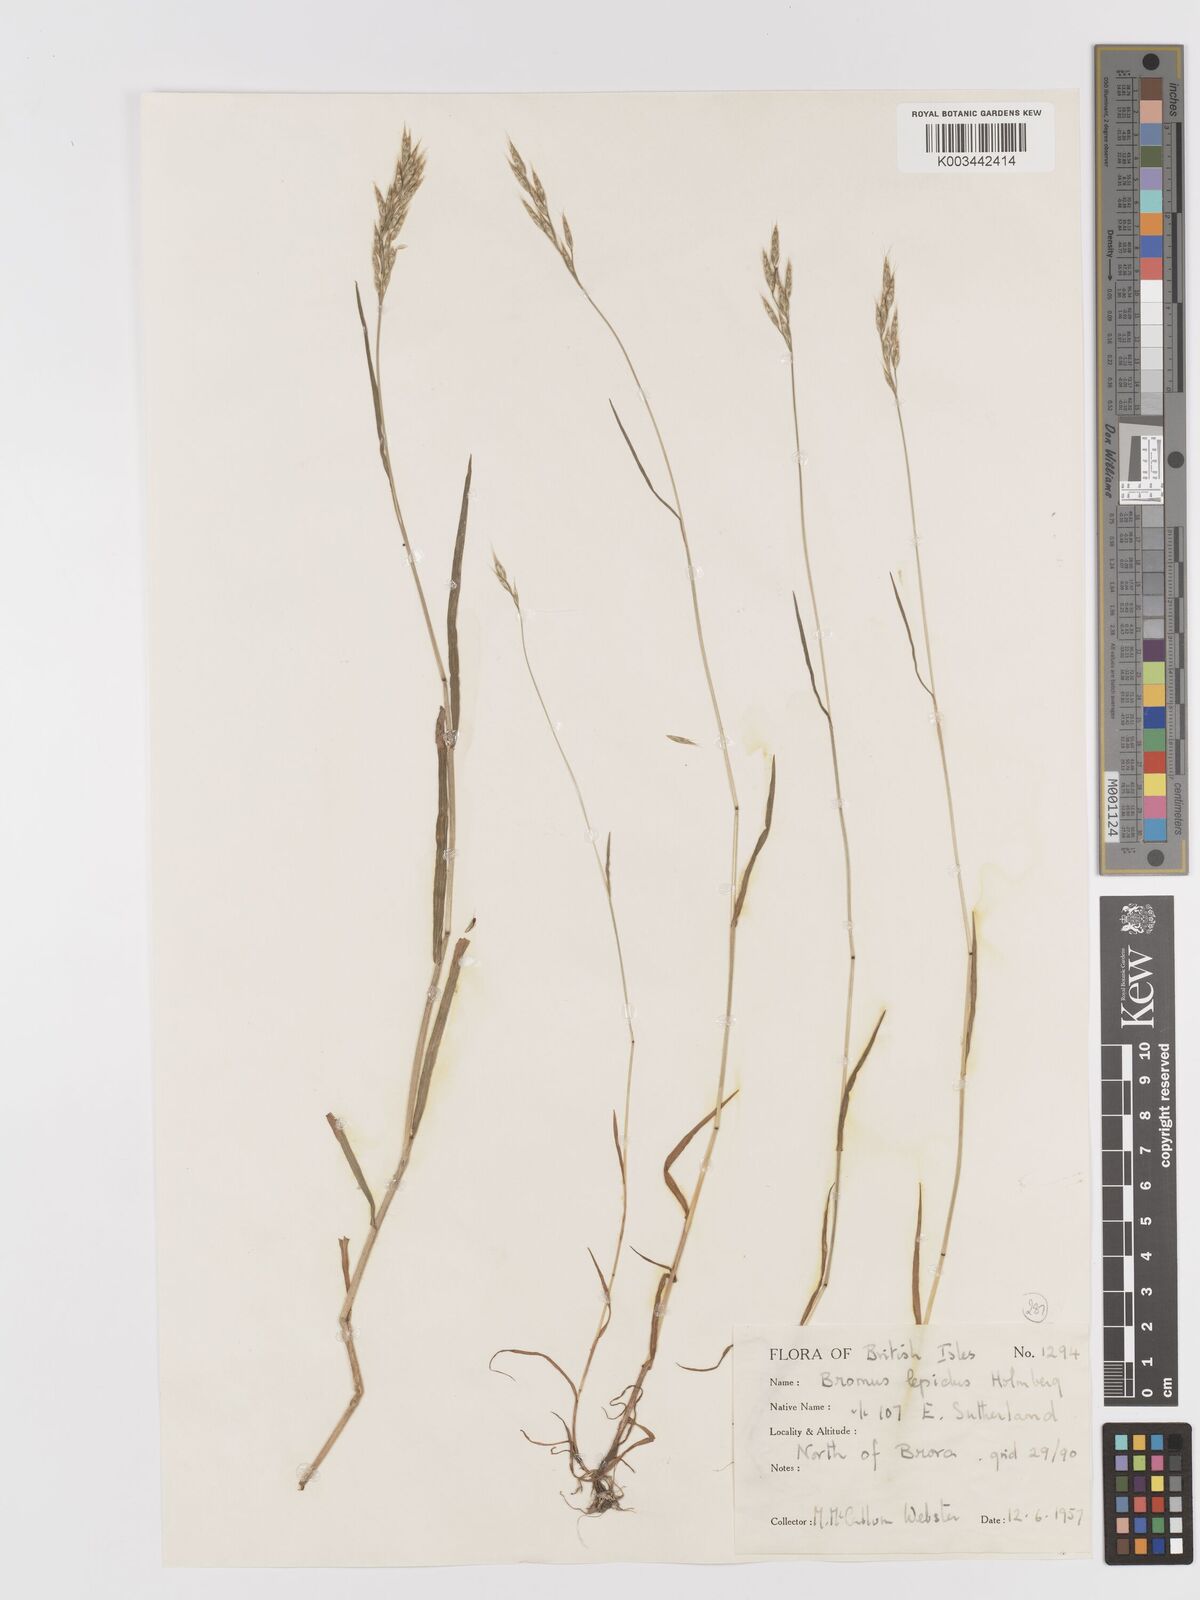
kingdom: Plantae
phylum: Tracheophyta
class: Liliopsida
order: Poales
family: Poaceae
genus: Bromus
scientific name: Bromus lepidus
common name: Slender soft-brome
